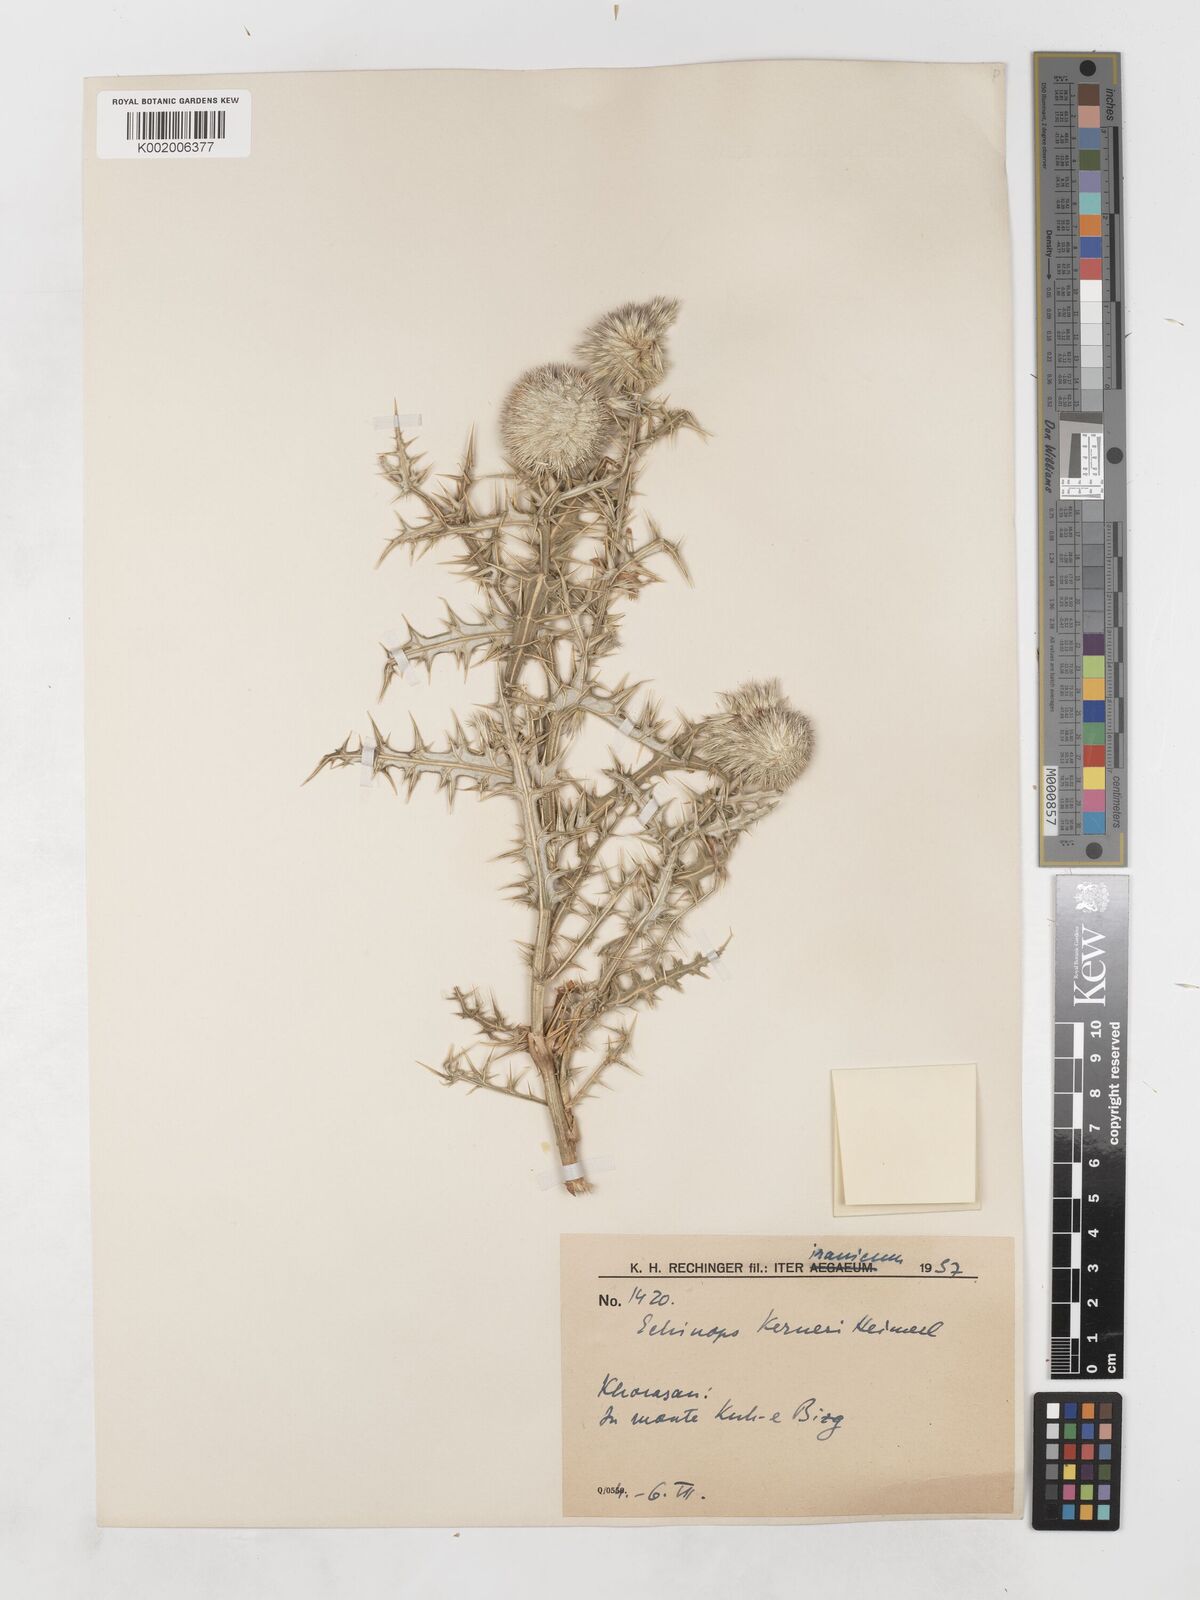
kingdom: Plantae
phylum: Tracheophyta
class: Magnoliopsida
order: Asterales
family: Asteraceae
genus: Echinops
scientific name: Echinops ritrodes
